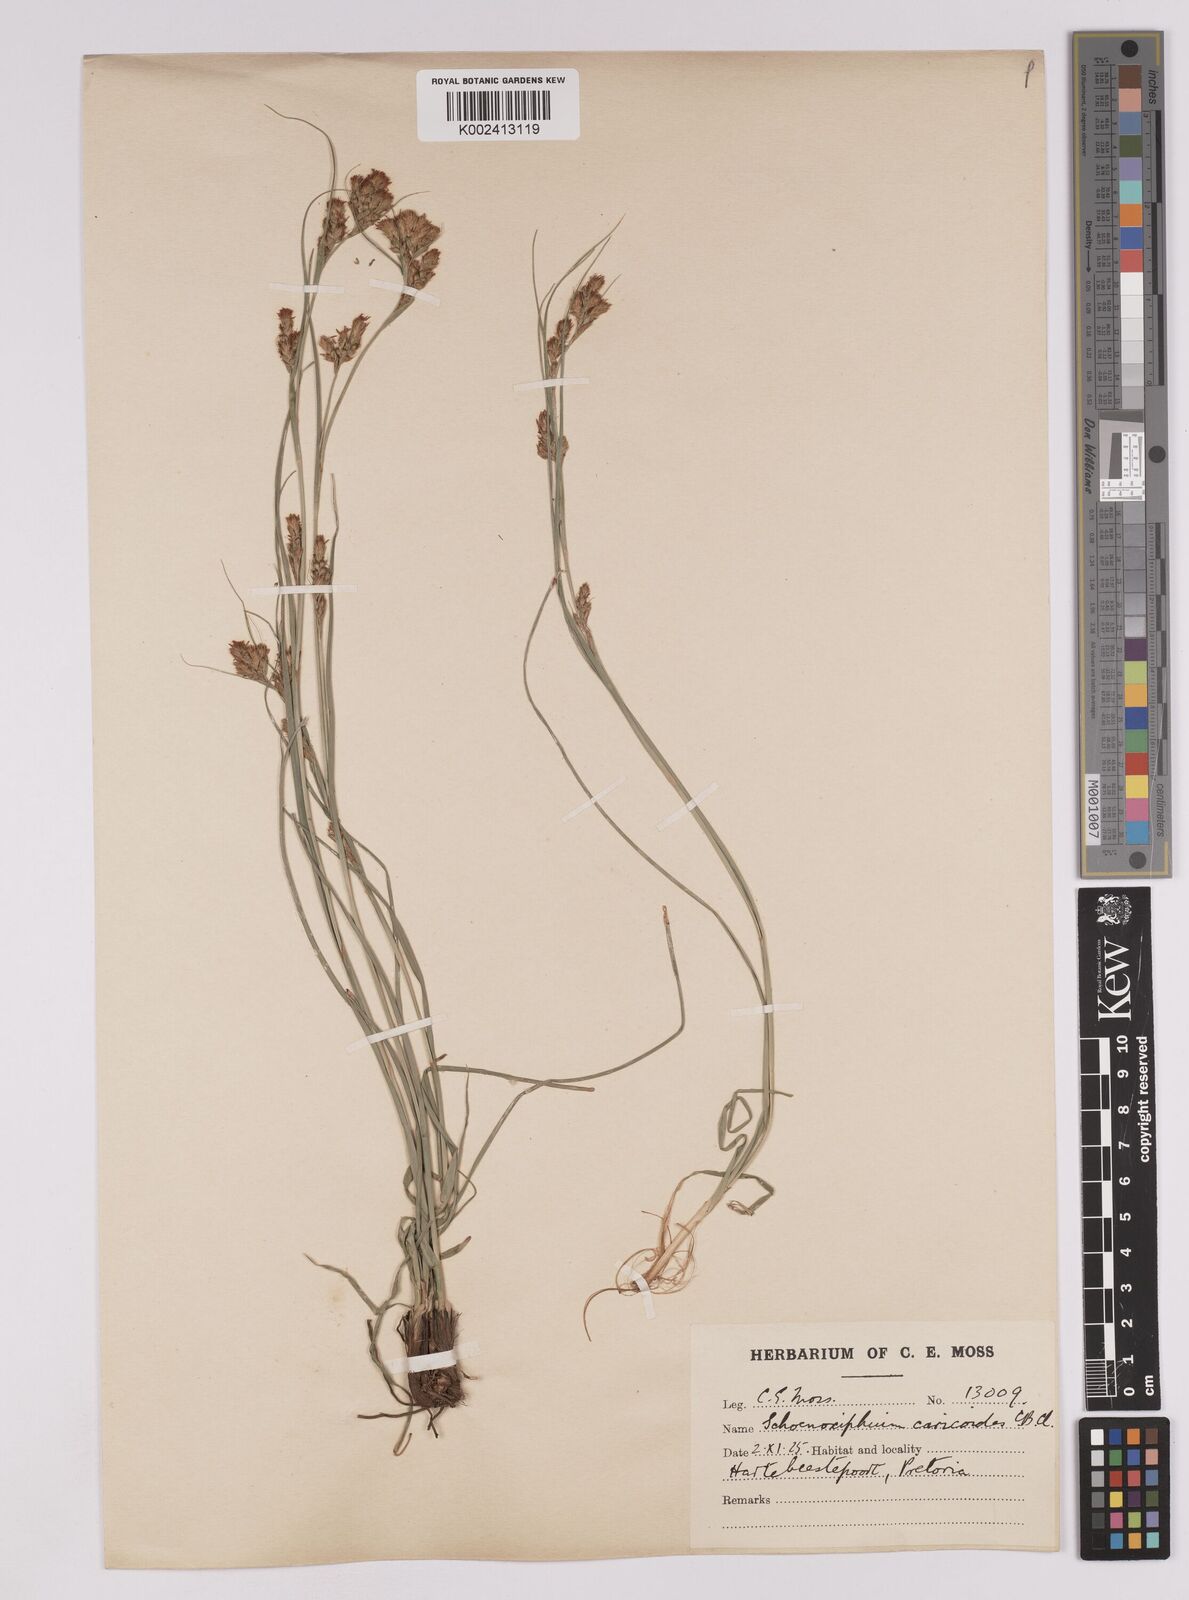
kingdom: Plantae
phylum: Tracheophyta
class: Liliopsida
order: Poales
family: Cyperaceae
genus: Carex
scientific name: Carex spartea
